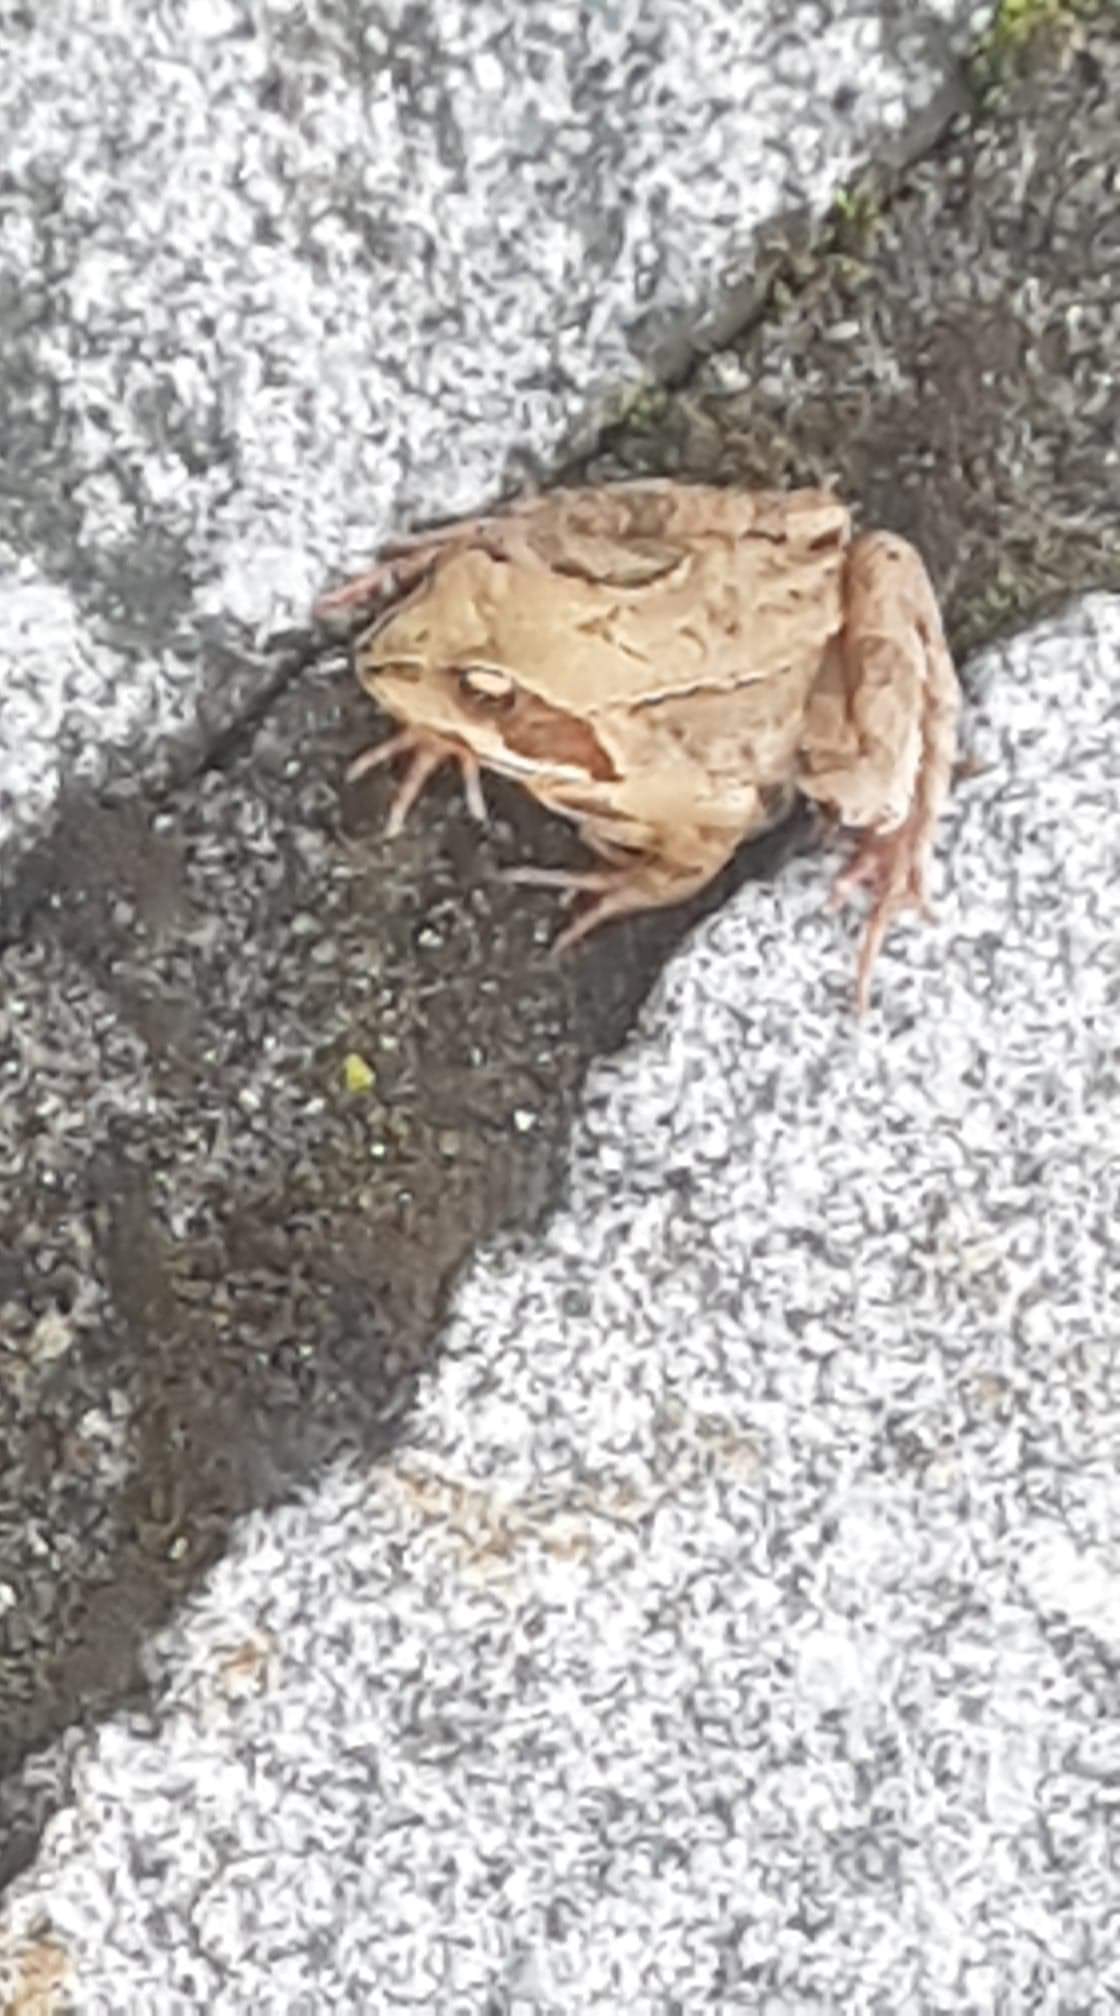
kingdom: Animalia
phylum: Chordata
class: Amphibia
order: Anura
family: Ranidae
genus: Rana
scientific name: Rana temporaria
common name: Butsnudet frø
